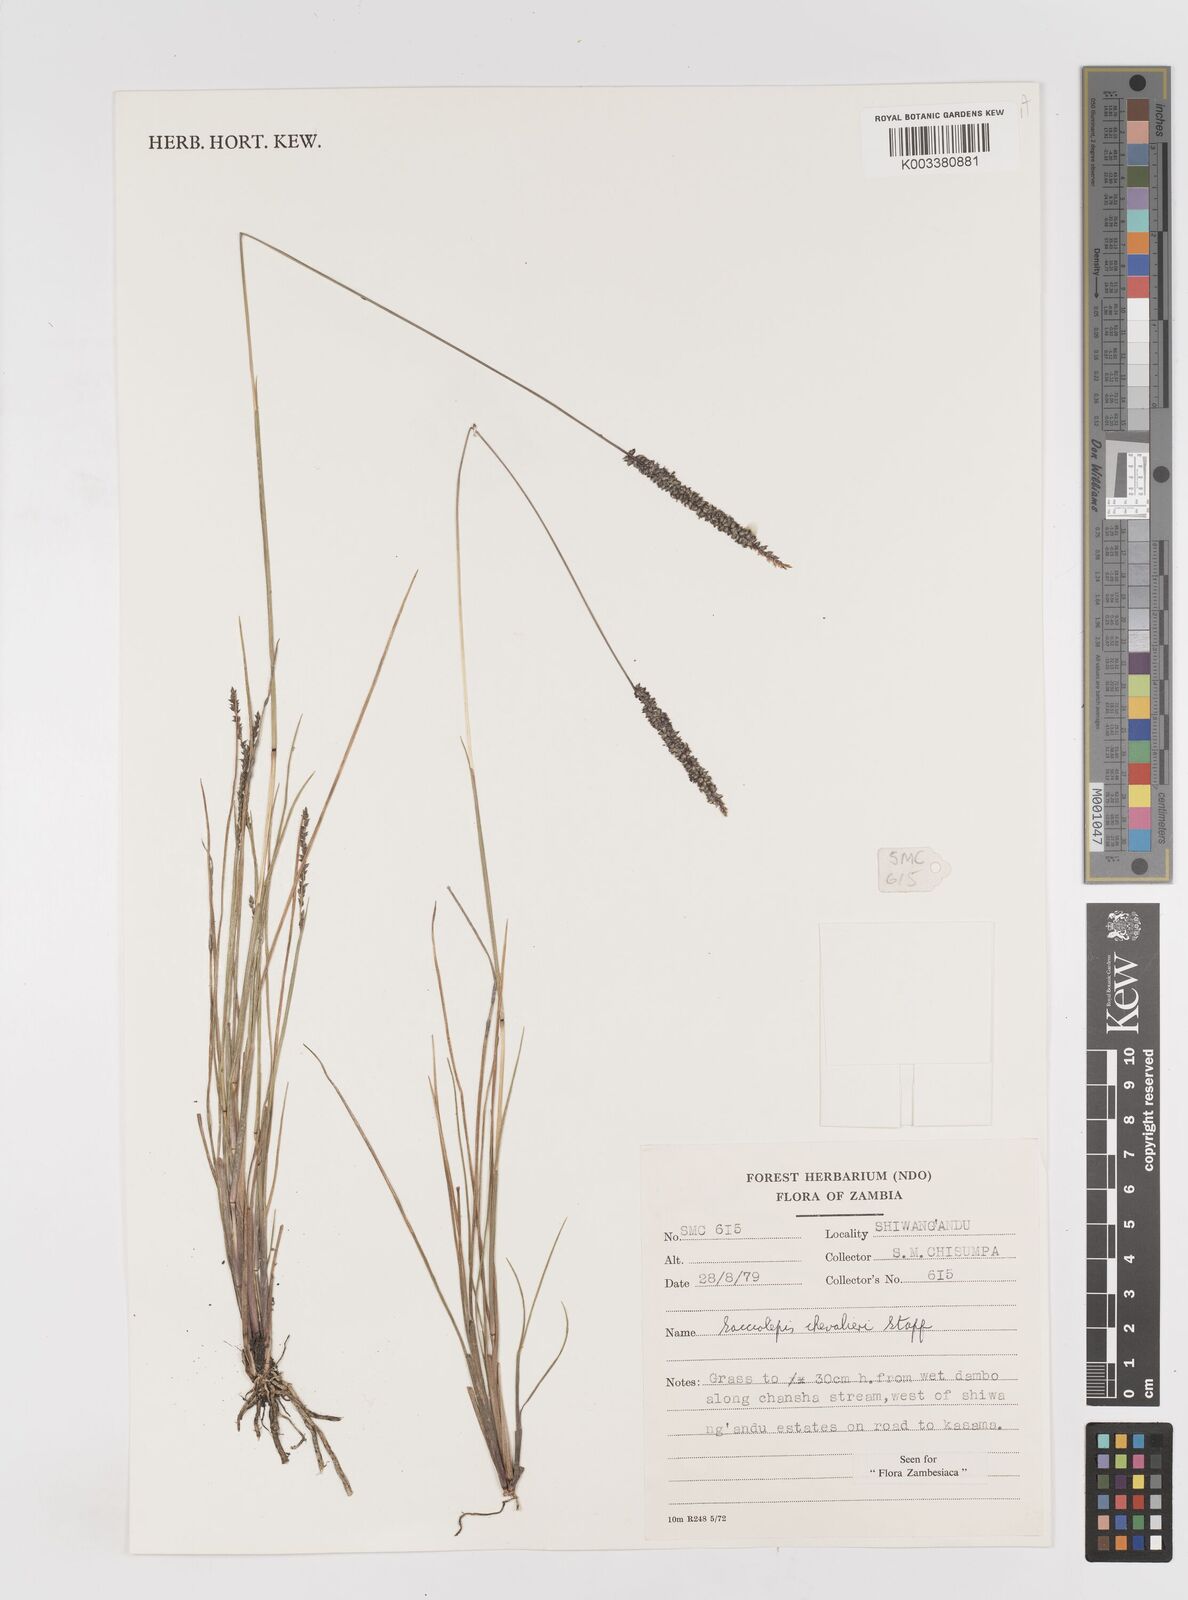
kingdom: Plantae
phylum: Tracheophyta
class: Liliopsida
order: Poales
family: Poaceae
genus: Sacciolepis
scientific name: Sacciolepis chevalieri
